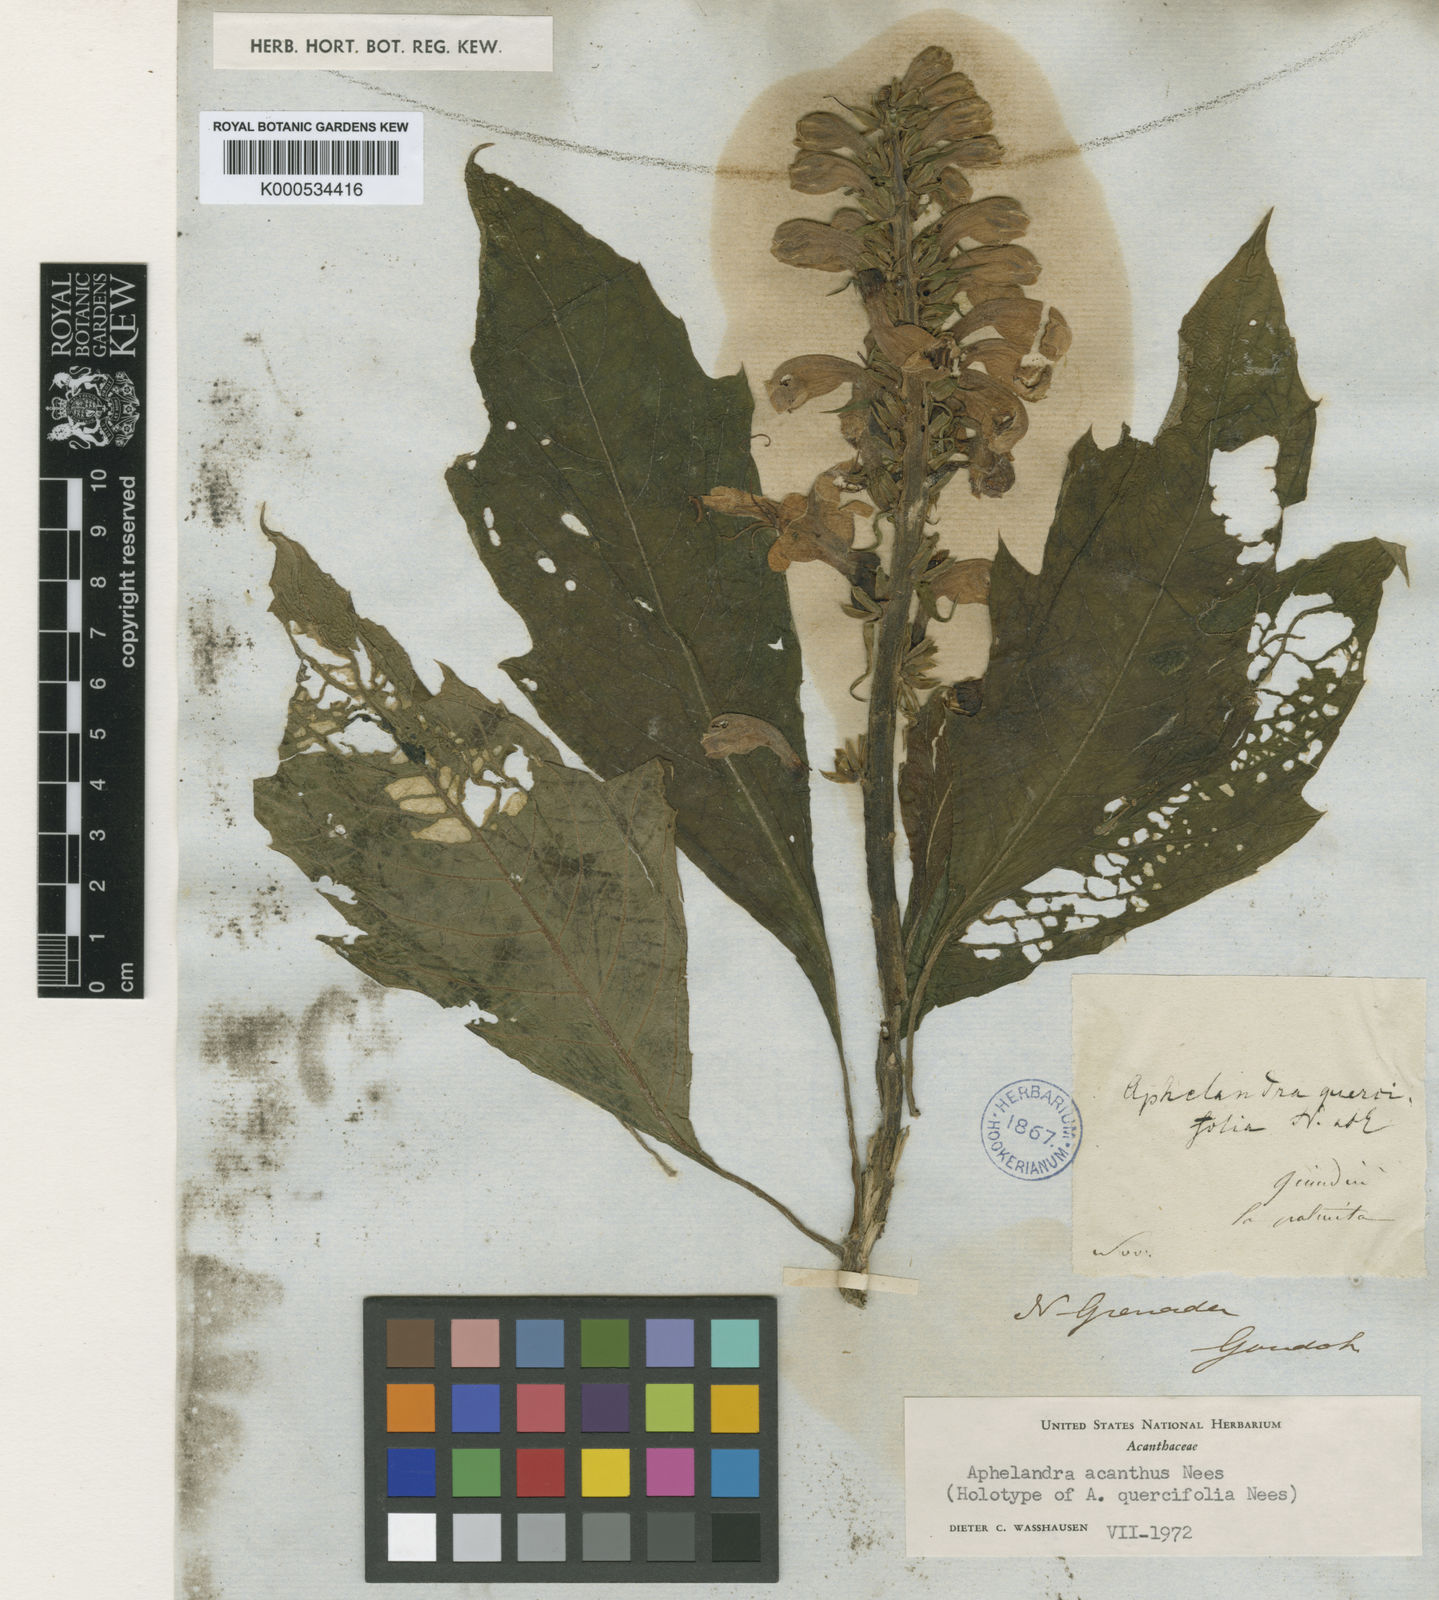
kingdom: Plantae
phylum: Tracheophyta
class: Magnoliopsida
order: Lamiales
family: Acanthaceae
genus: Aphelandra
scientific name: Aphelandra acanthus
